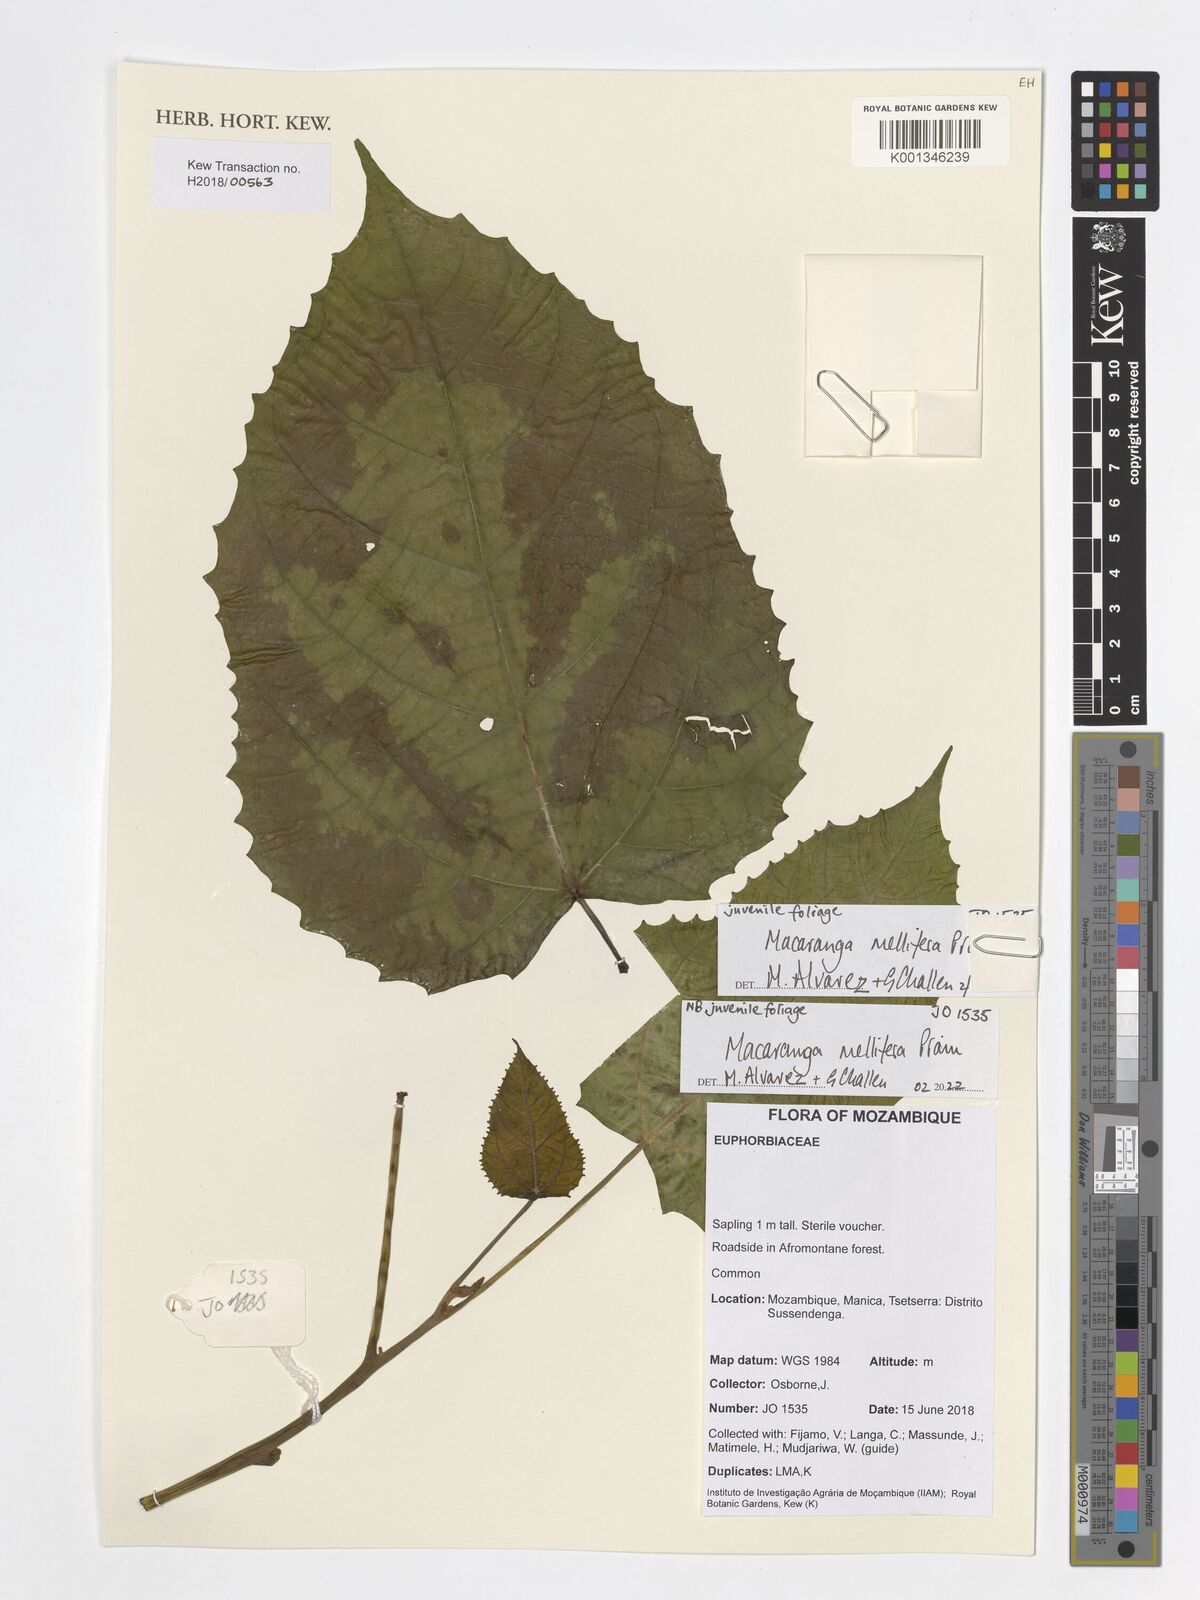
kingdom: Plantae
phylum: Tracheophyta
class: Magnoliopsida
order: Malpighiales
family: Euphorbiaceae
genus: Macaranga
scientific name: Macaranga mellifera
